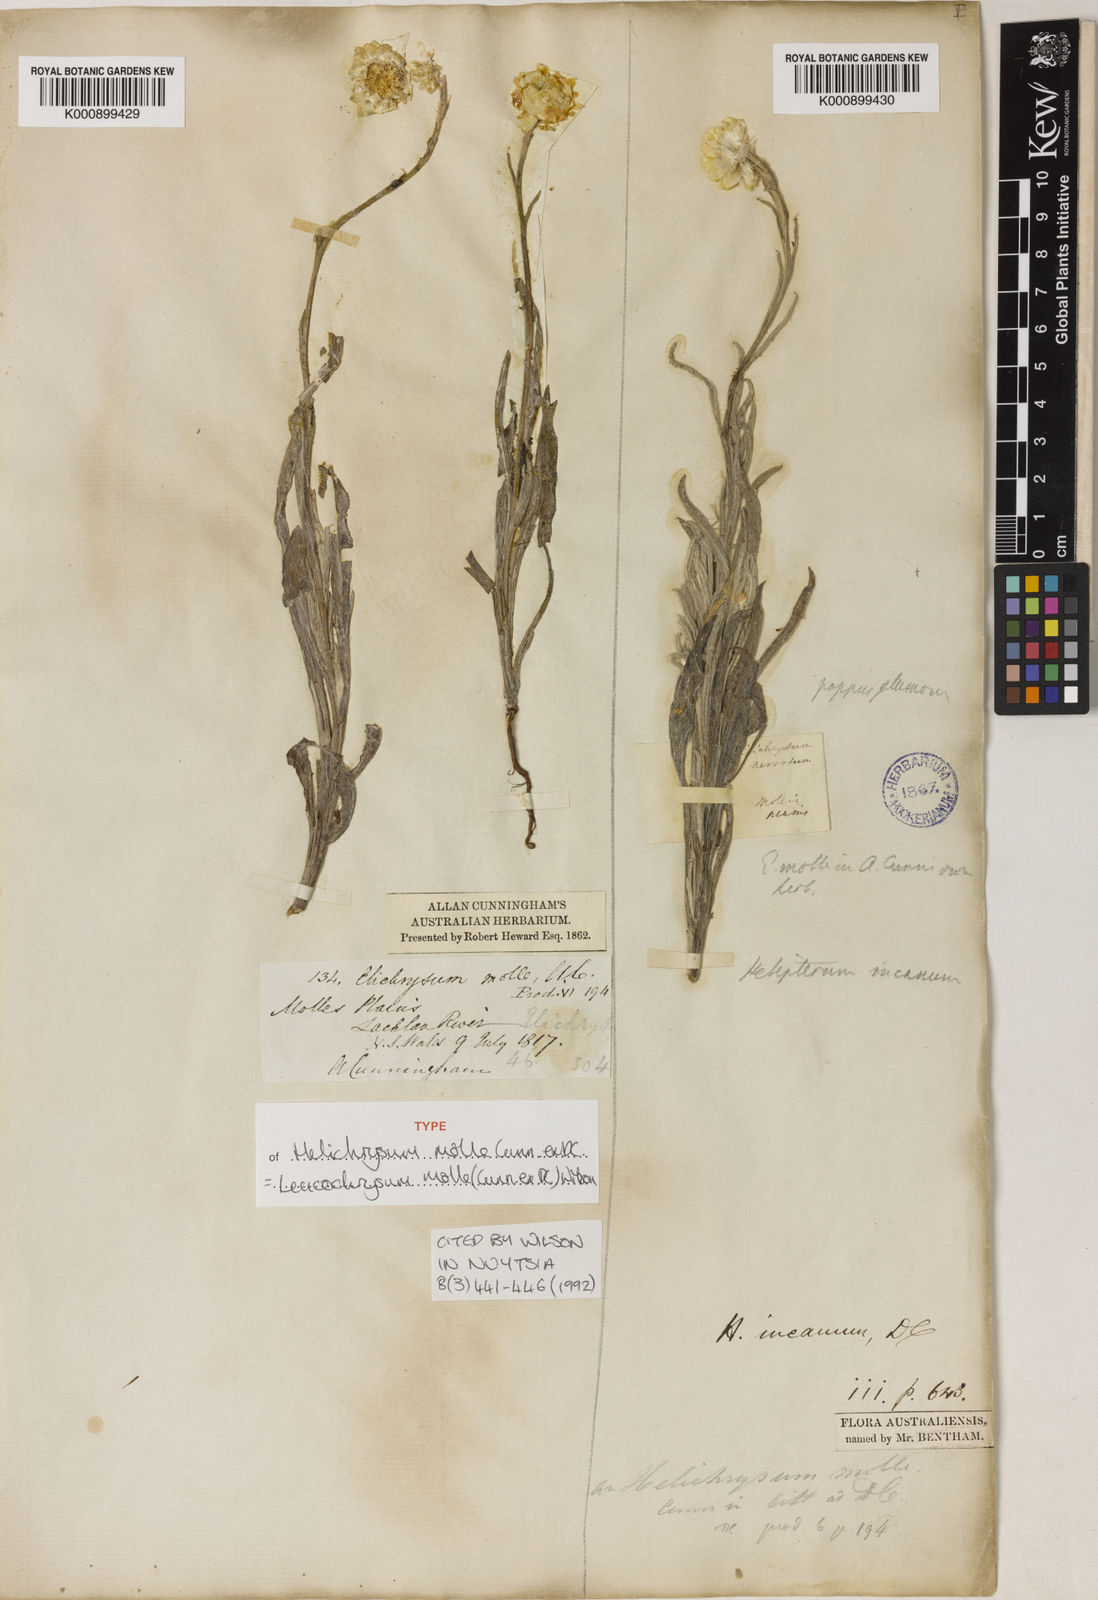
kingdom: Plantae
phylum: Tracheophyta
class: Magnoliopsida
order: Asterales
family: Asteraceae
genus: Leucochrysum
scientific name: Leucochrysum molle
